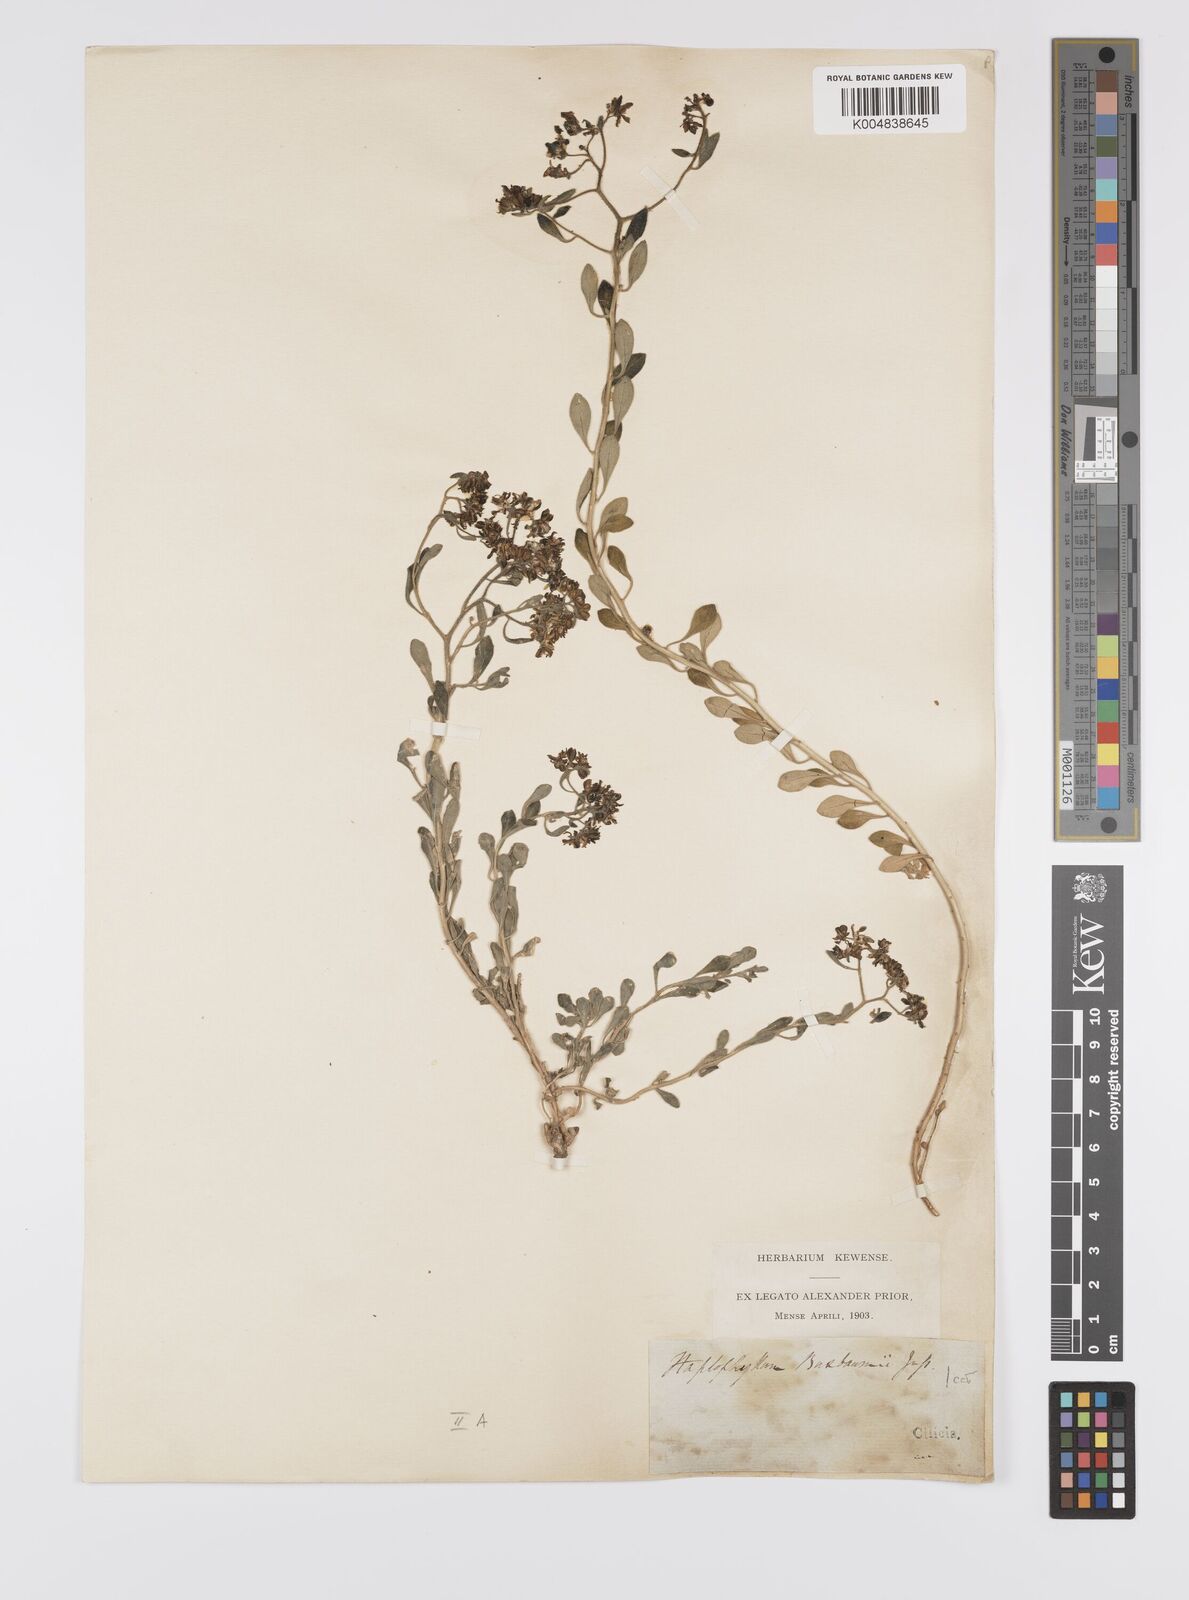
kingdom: Plantae
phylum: Tracheophyta
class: Magnoliopsida
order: Sapindales
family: Rutaceae
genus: Haplophyllum
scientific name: Haplophyllum
